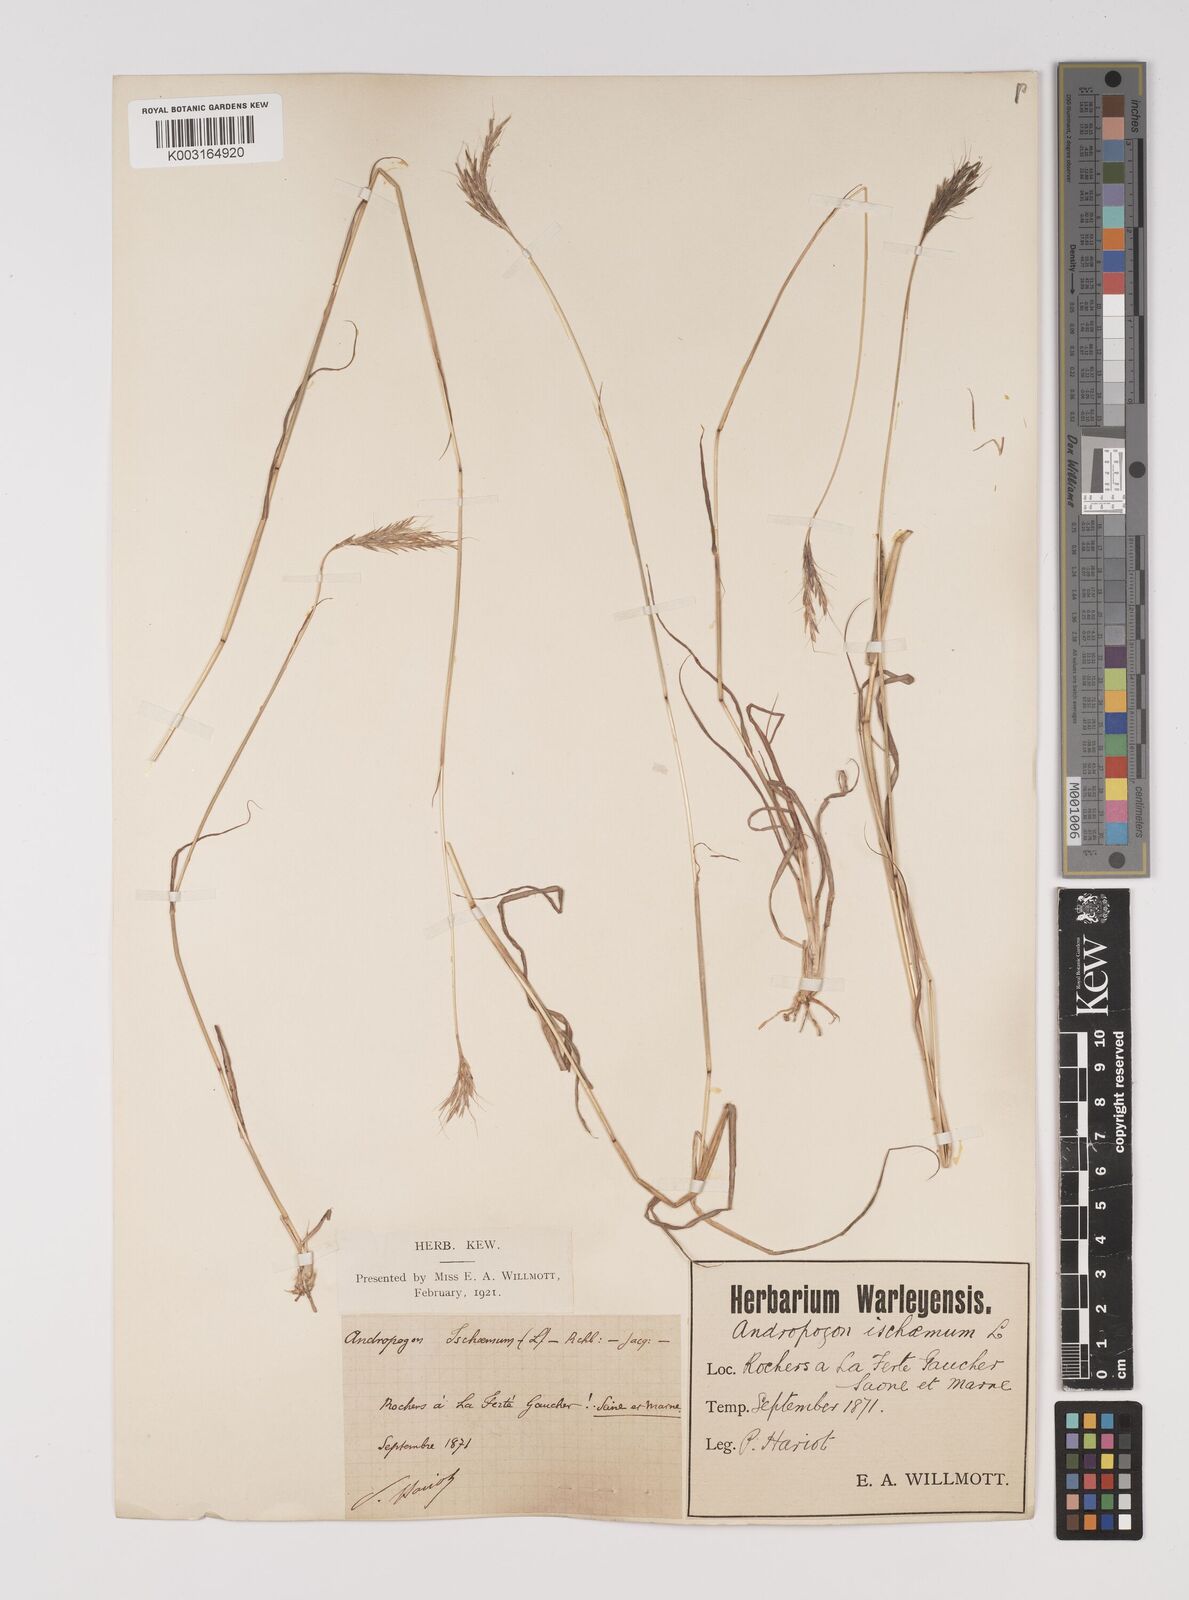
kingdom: Plantae
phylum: Tracheophyta
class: Liliopsida
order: Poales
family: Poaceae
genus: Bothriochloa
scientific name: Bothriochloa ischaemum
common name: Yellow bluestem
